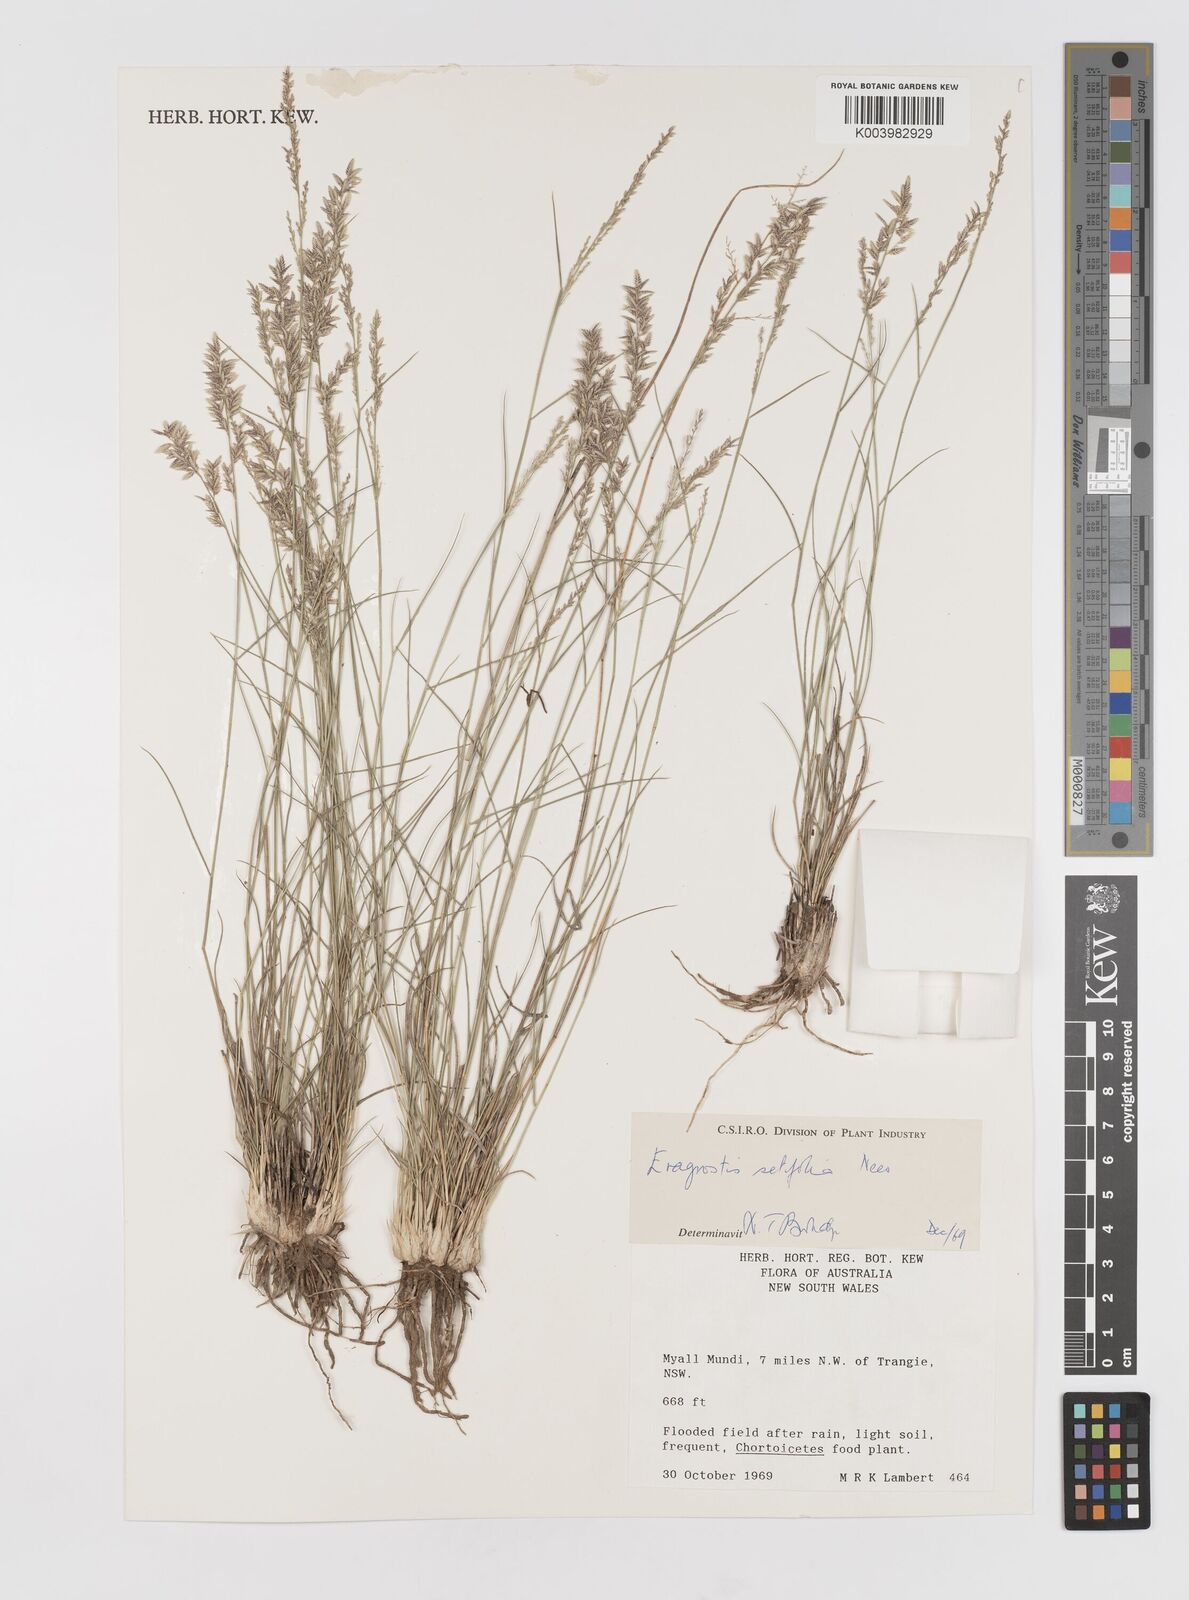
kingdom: Plantae
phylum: Tracheophyta
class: Liliopsida
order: Poales
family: Poaceae
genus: Eragrostis
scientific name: Eragrostis setifolia
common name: Bristleleaf lovegrass
